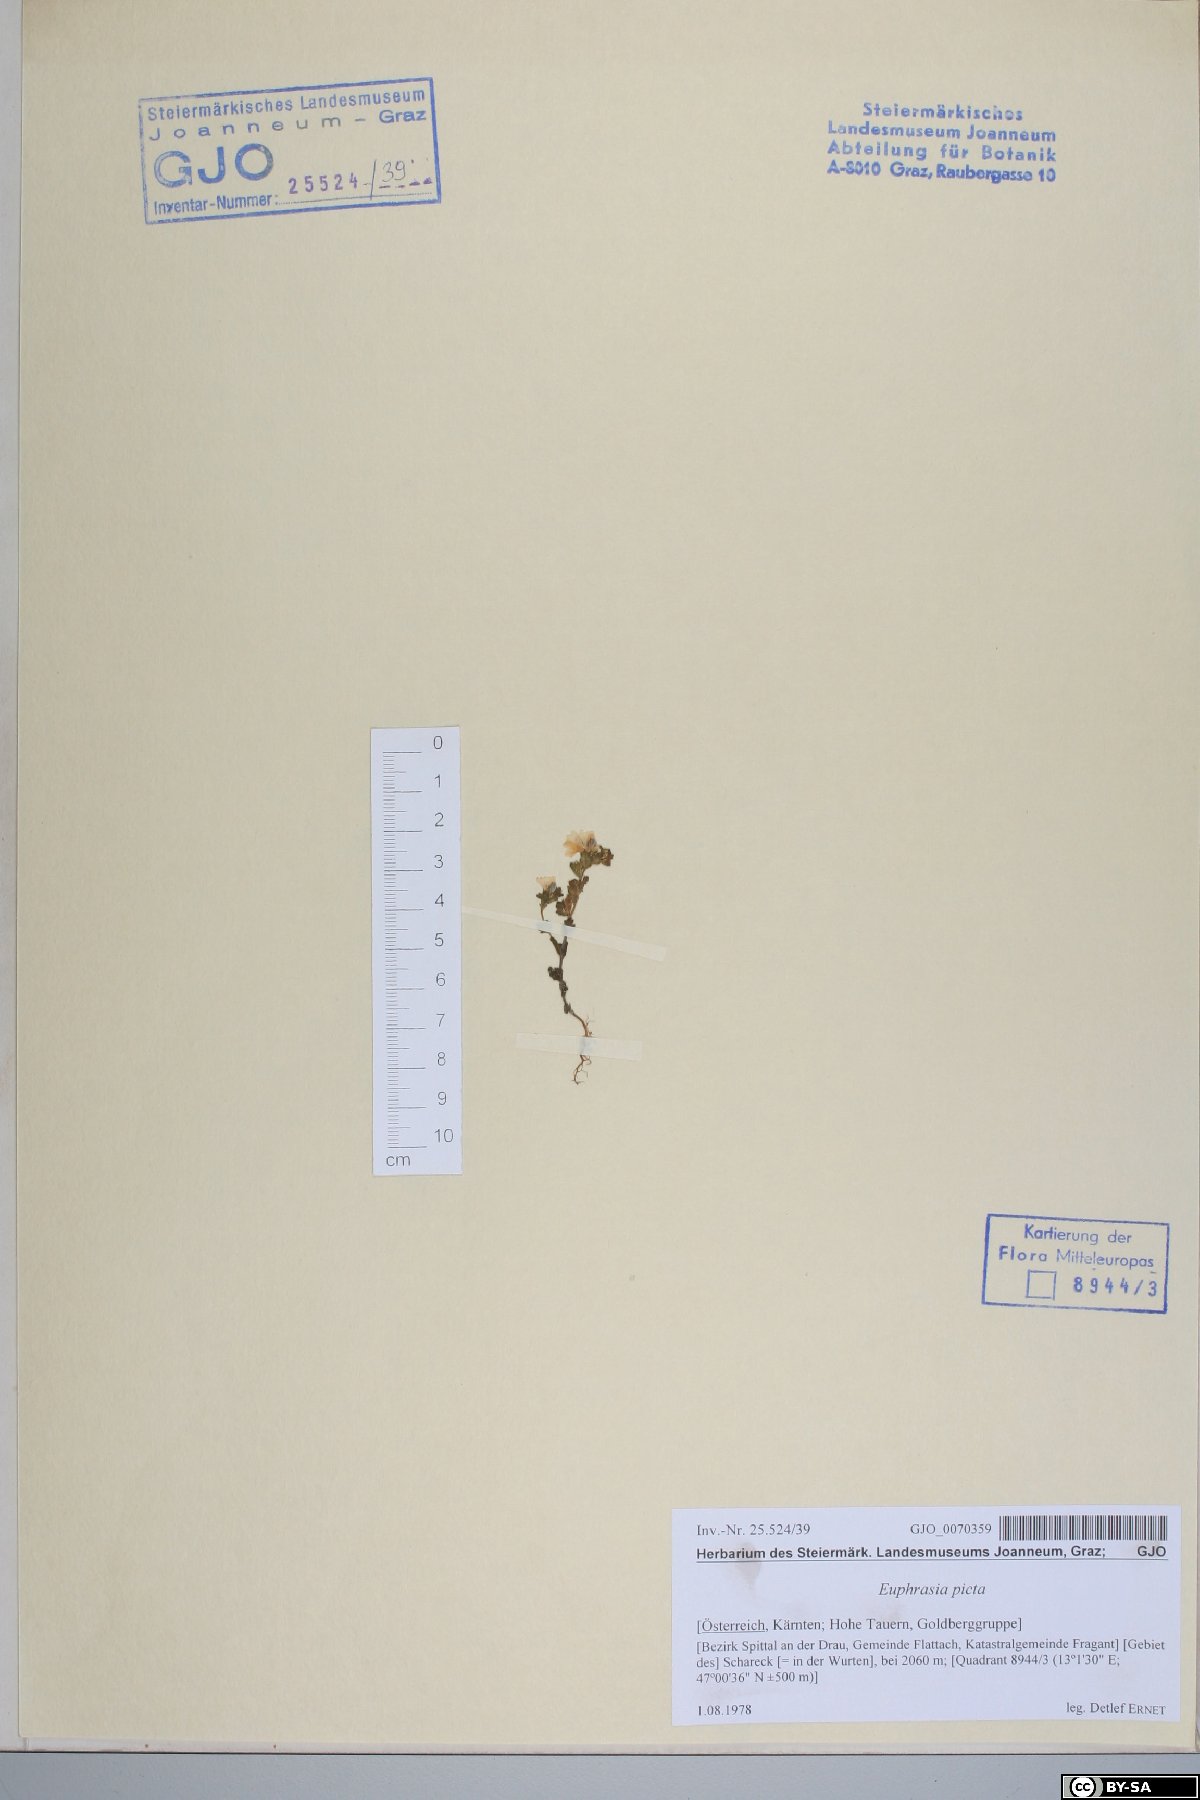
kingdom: Plantae
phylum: Tracheophyta
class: Magnoliopsida
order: Lamiales
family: Orobanchaceae
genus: Euphrasia
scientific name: Euphrasia picta
